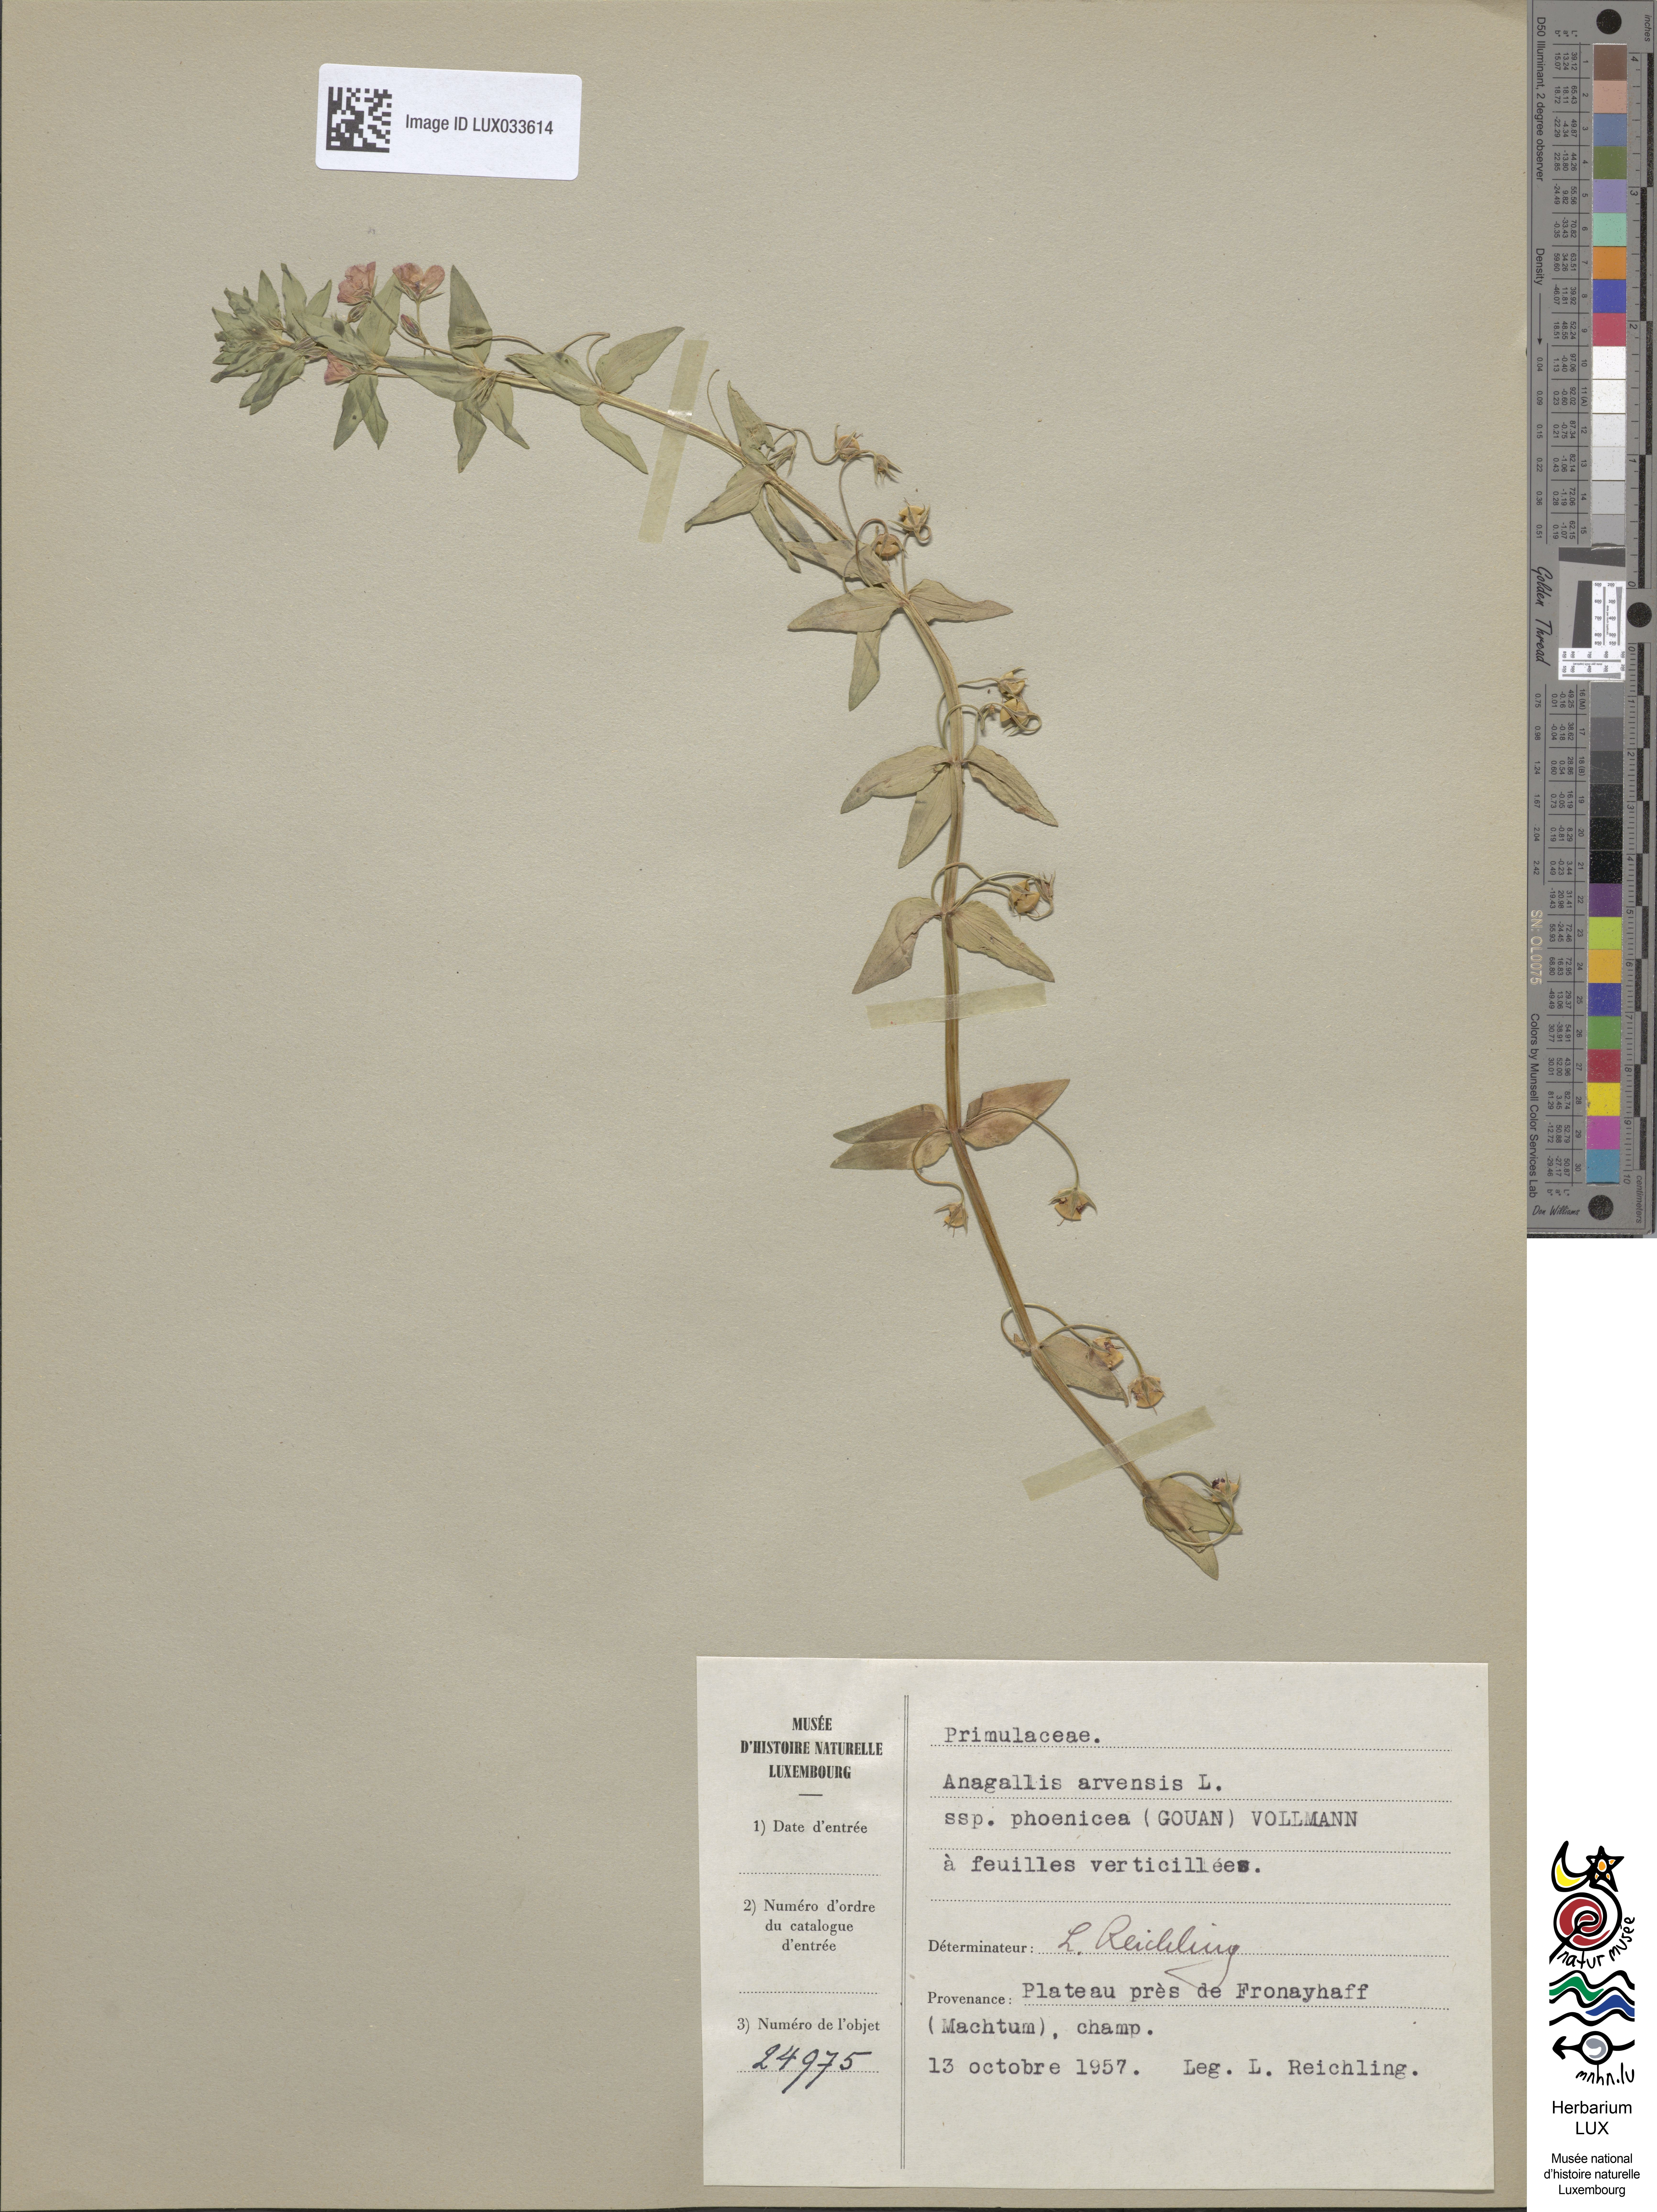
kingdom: Plantae
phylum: Tracheophyta
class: Magnoliopsida
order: Ericales
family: Primulaceae
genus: Lysimachia
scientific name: Lysimachia arvensis
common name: Scarlet pimpernel
